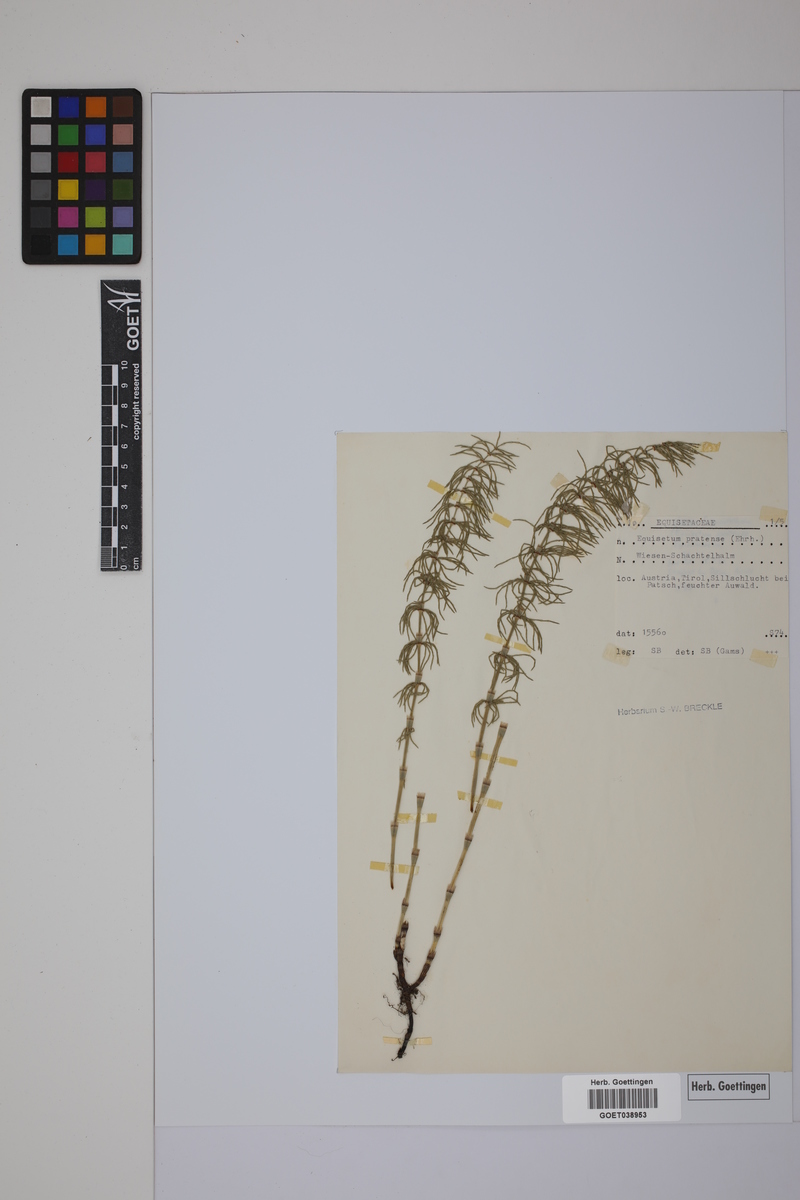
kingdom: Plantae
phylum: Tracheophyta
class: Polypodiopsida
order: Equisetales
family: Equisetaceae
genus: Equisetum
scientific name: Equisetum pratense
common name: Meadow horsetail
